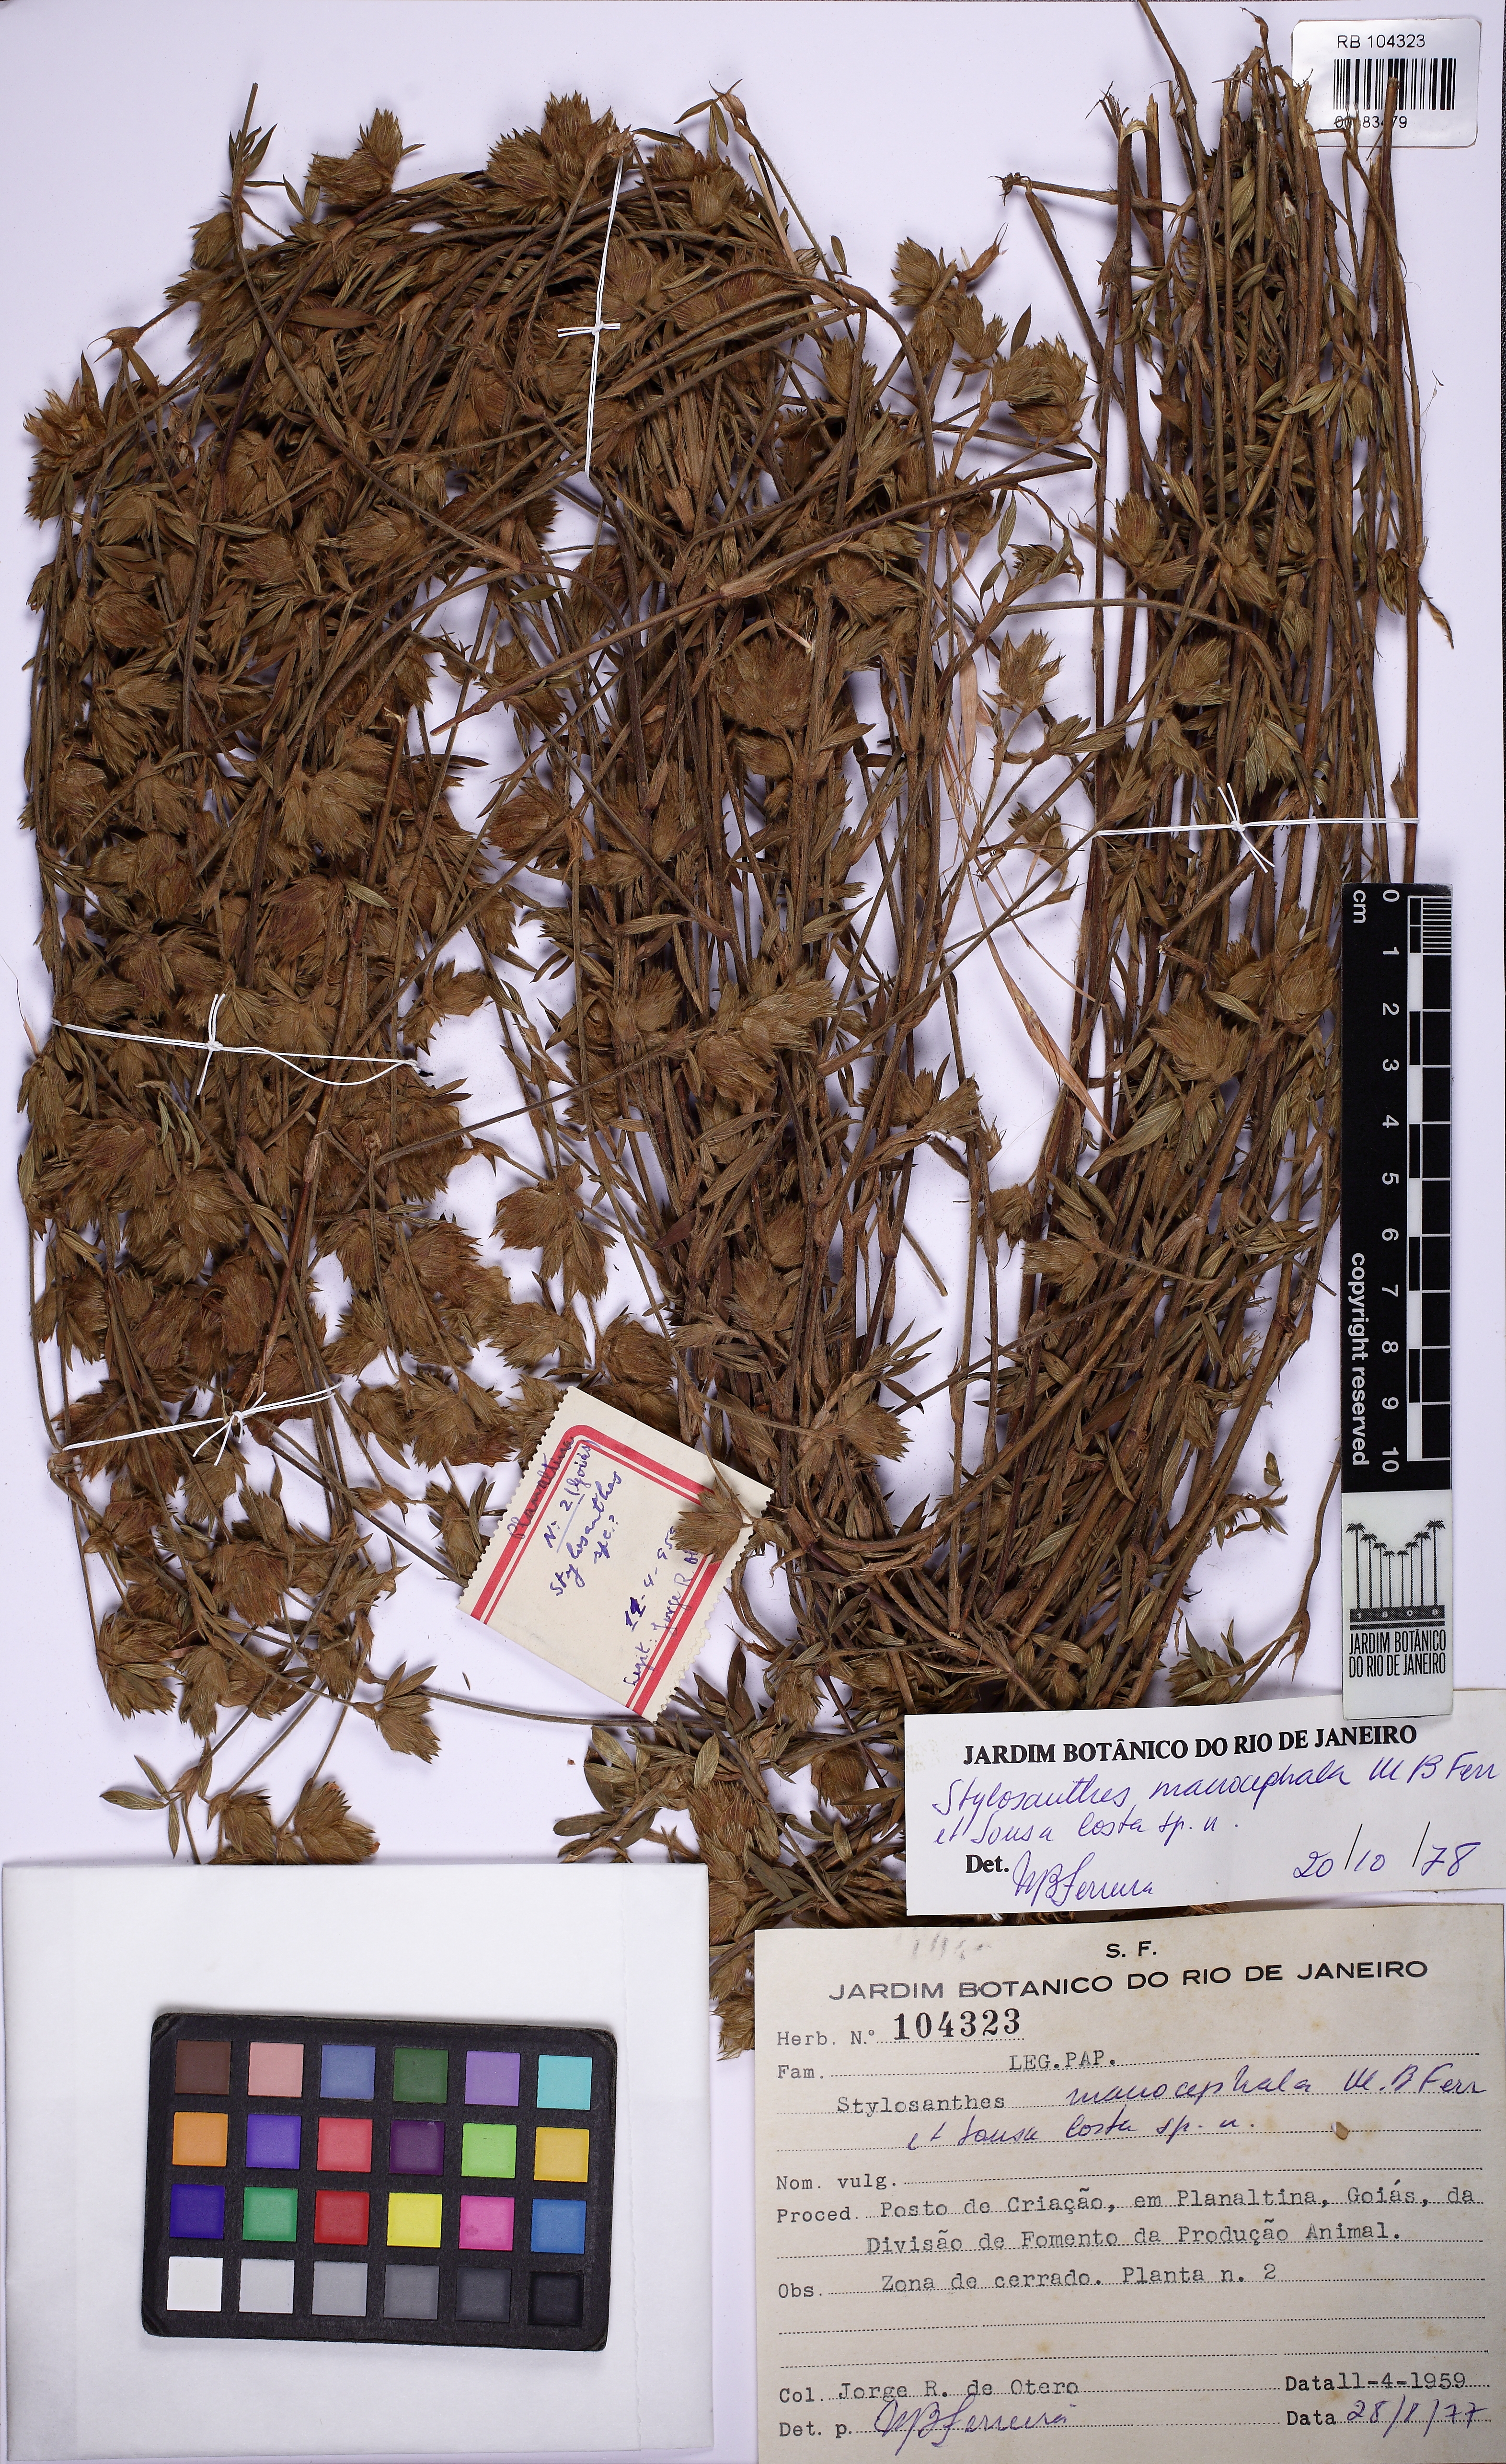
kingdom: Plantae
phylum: Tracheophyta
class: Magnoliopsida
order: Fabales
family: Fabaceae
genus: Stylosanthes
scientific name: Stylosanthes macrocephala
